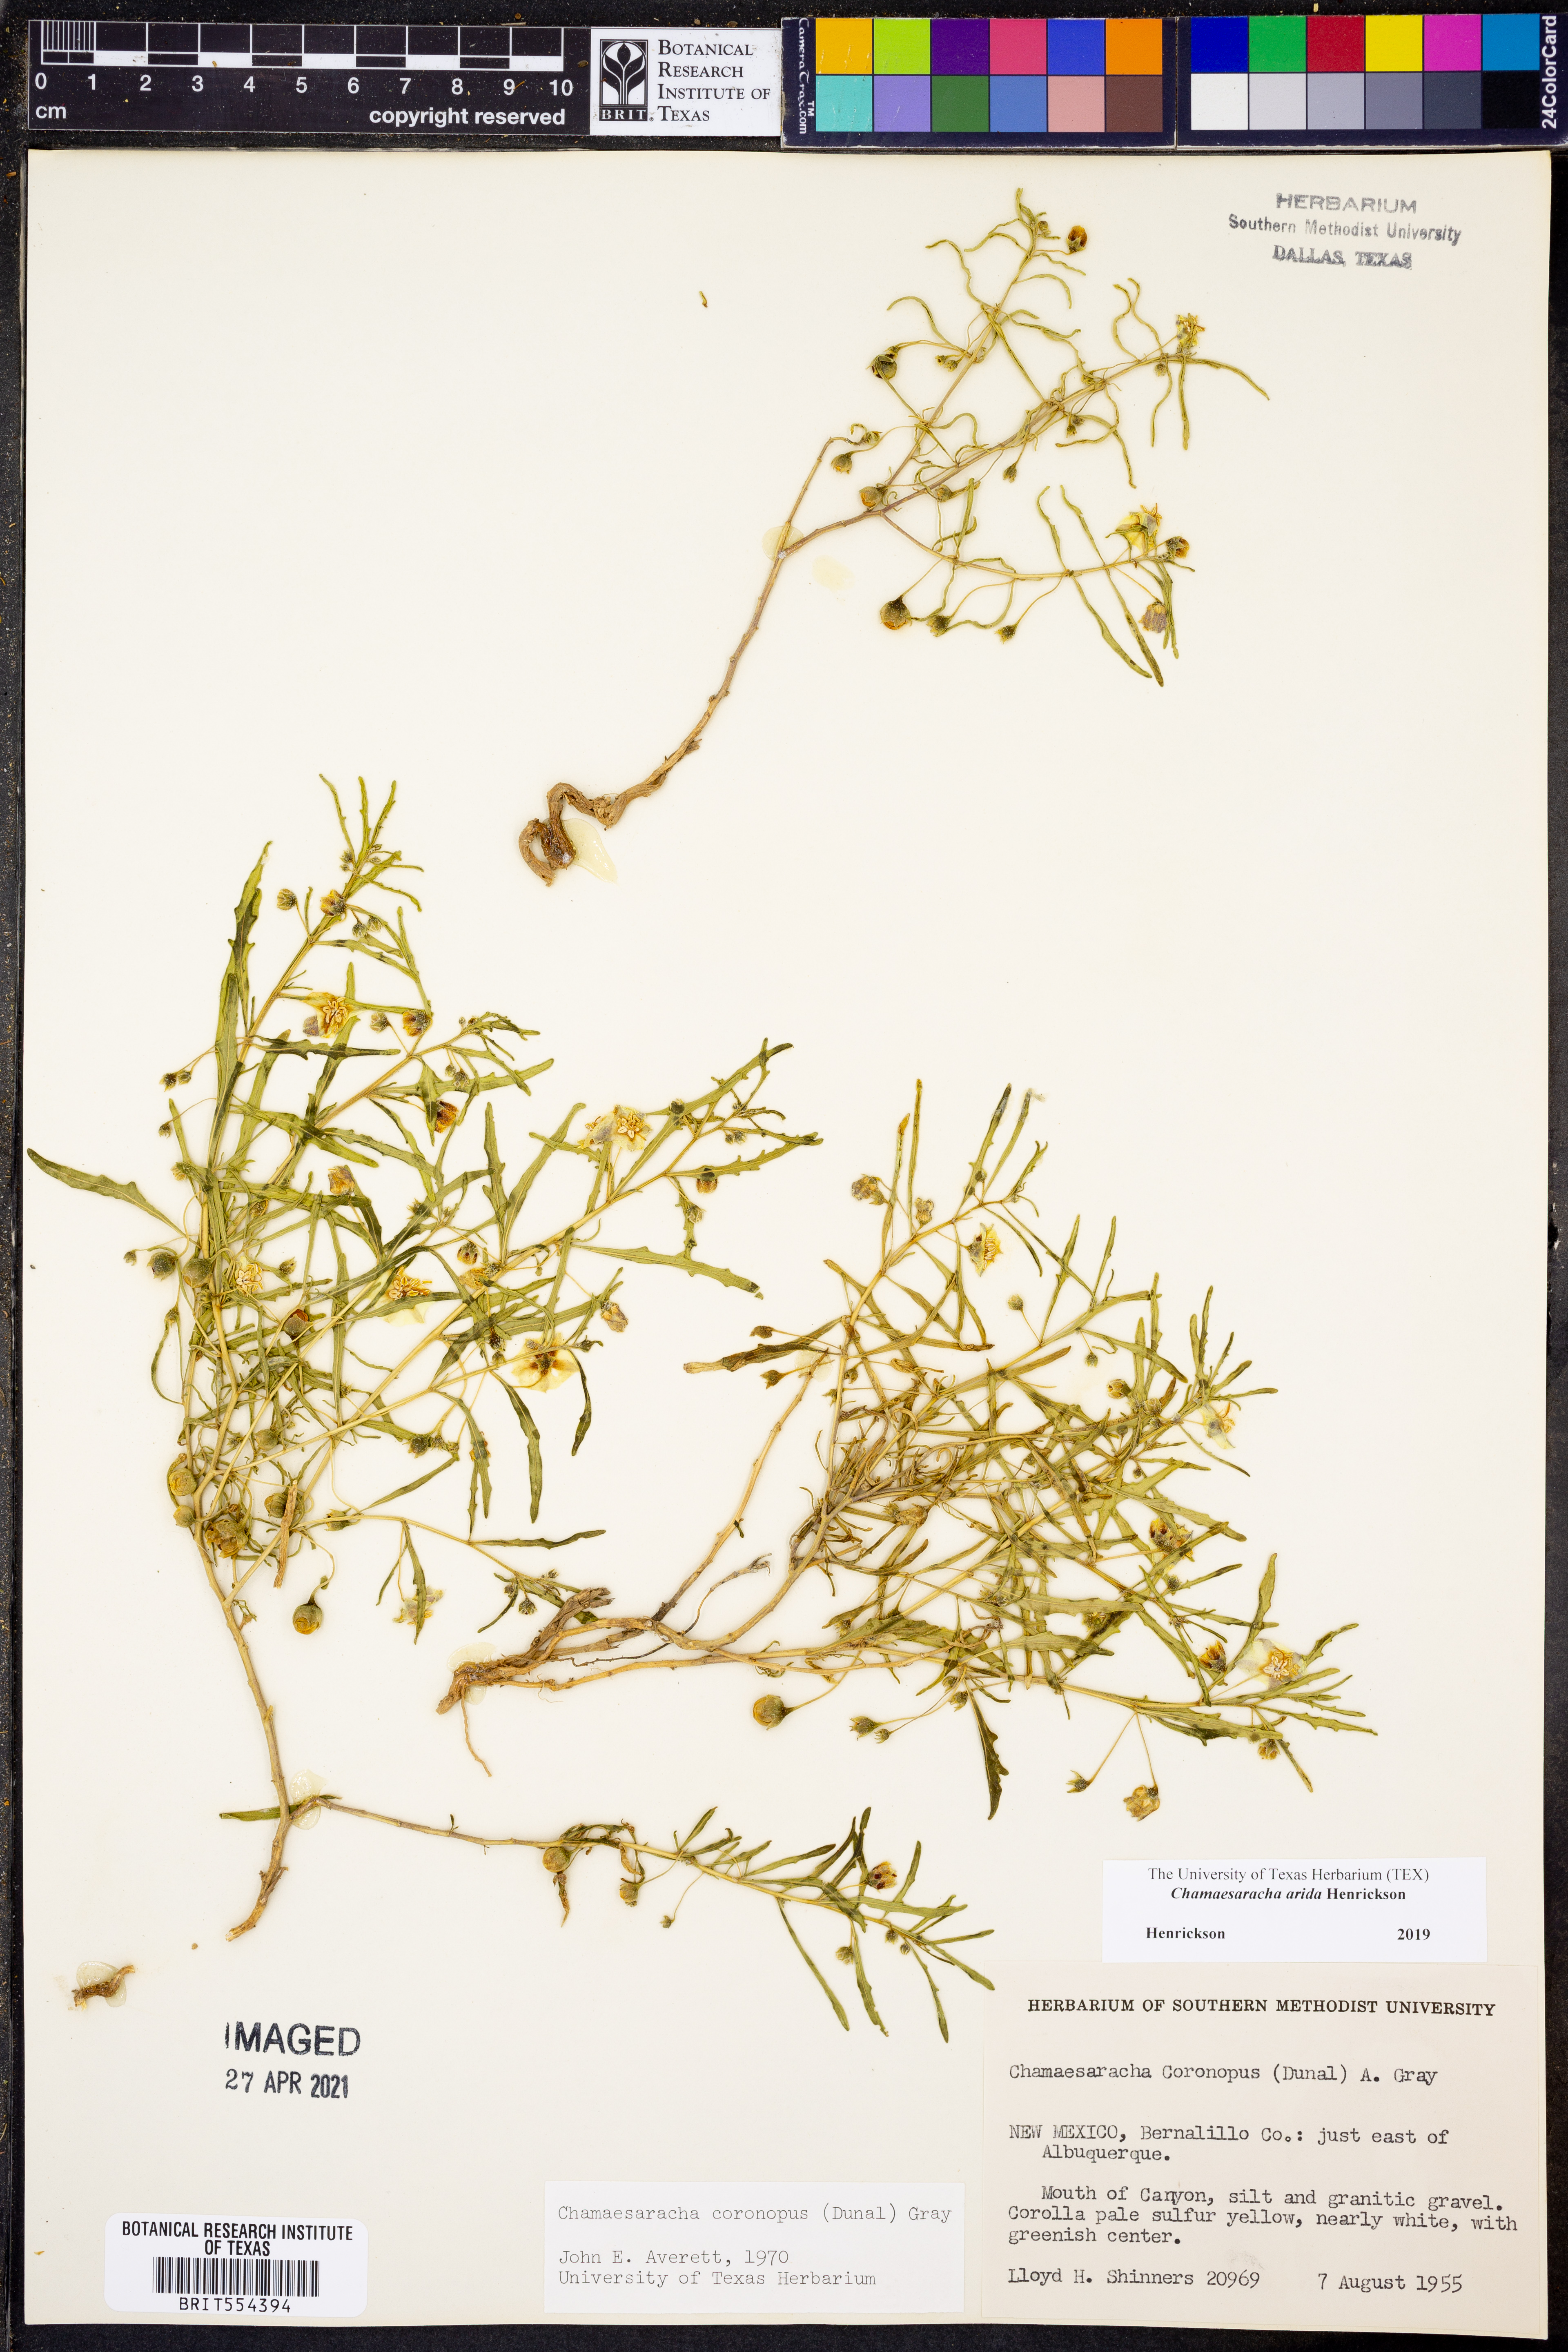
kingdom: Plantae
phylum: Tracheophyta
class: Magnoliopsida
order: Solanales
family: Solanaceae
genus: Chamaesaracha
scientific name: Chamaesaracha arida
